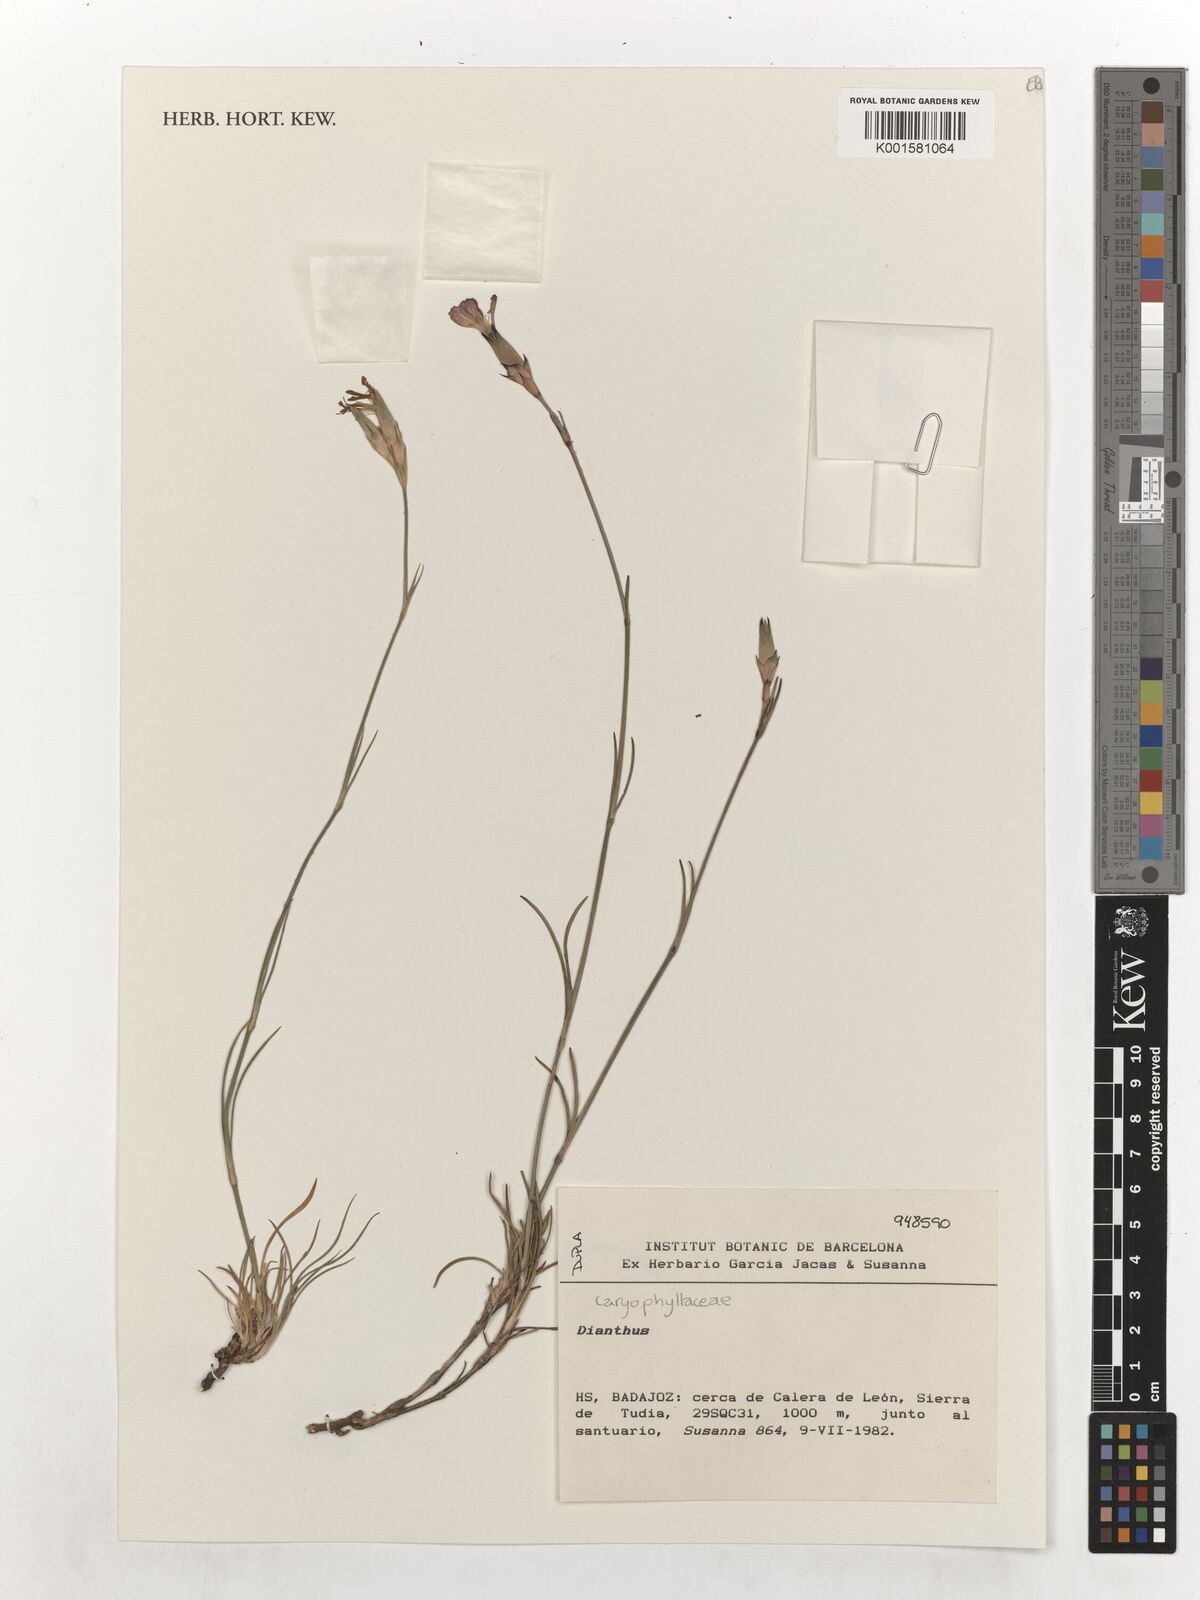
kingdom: Plantae
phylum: Tracheophyta
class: Magnoliopsida
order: Caryophyllales
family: Caryophyllaceae
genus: Dianthus
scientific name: Dianthus
